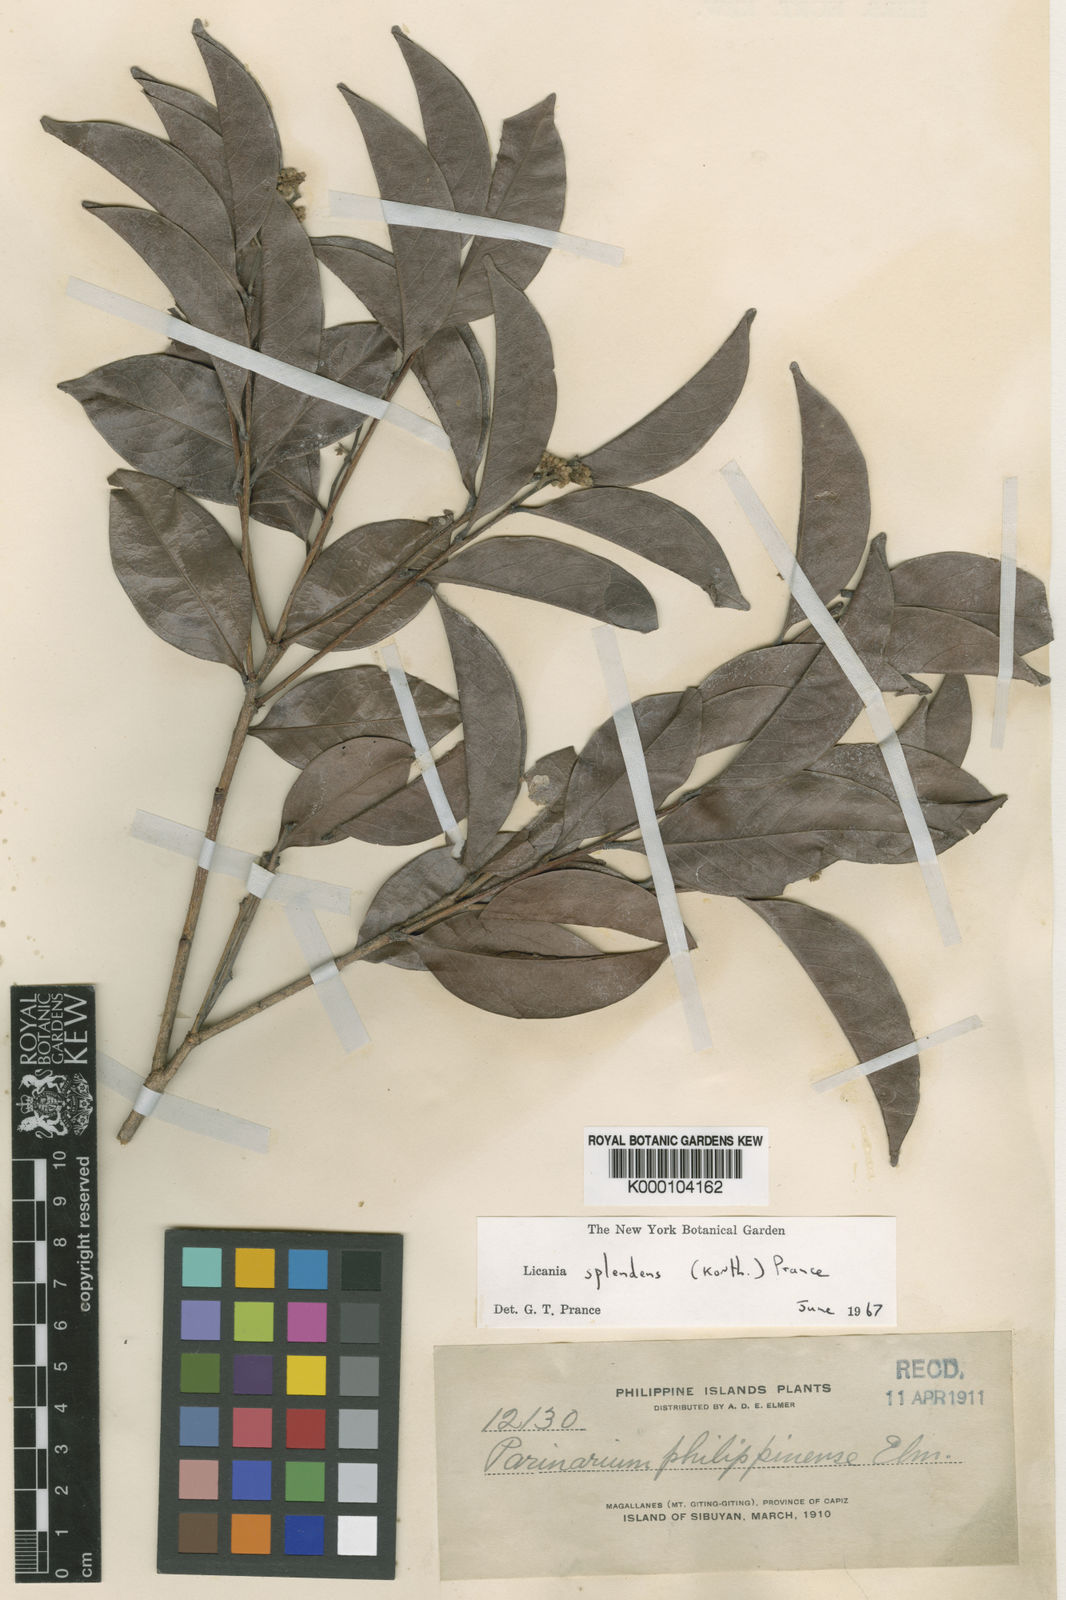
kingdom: Plantae
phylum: Tracheophyta
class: Magnoliopsida
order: Malpighiales
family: Chrysobalanaceae
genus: Angelesia
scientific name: Angelesia splendens
